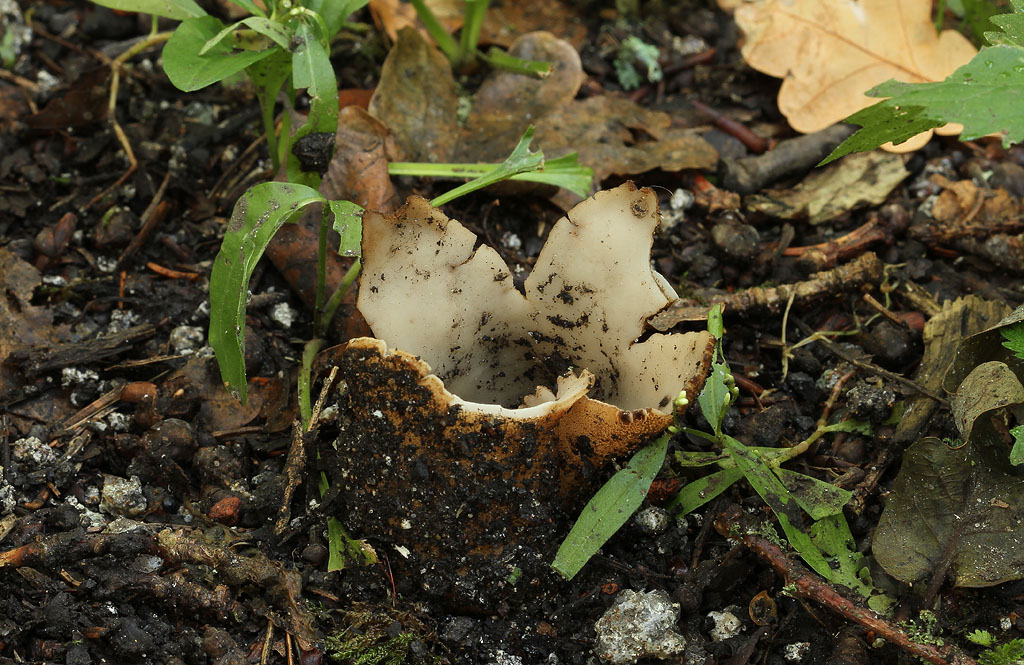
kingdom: Fungi
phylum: Ascomycota
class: Pezizomycetes
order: Pezizales
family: Pyronemataceae
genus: Geopora
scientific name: Geopora sepulta
